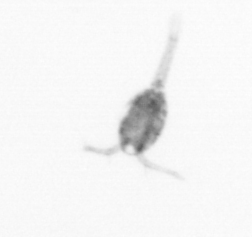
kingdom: Animalia
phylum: Arthropoda
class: Copepoda
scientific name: Copepoda
